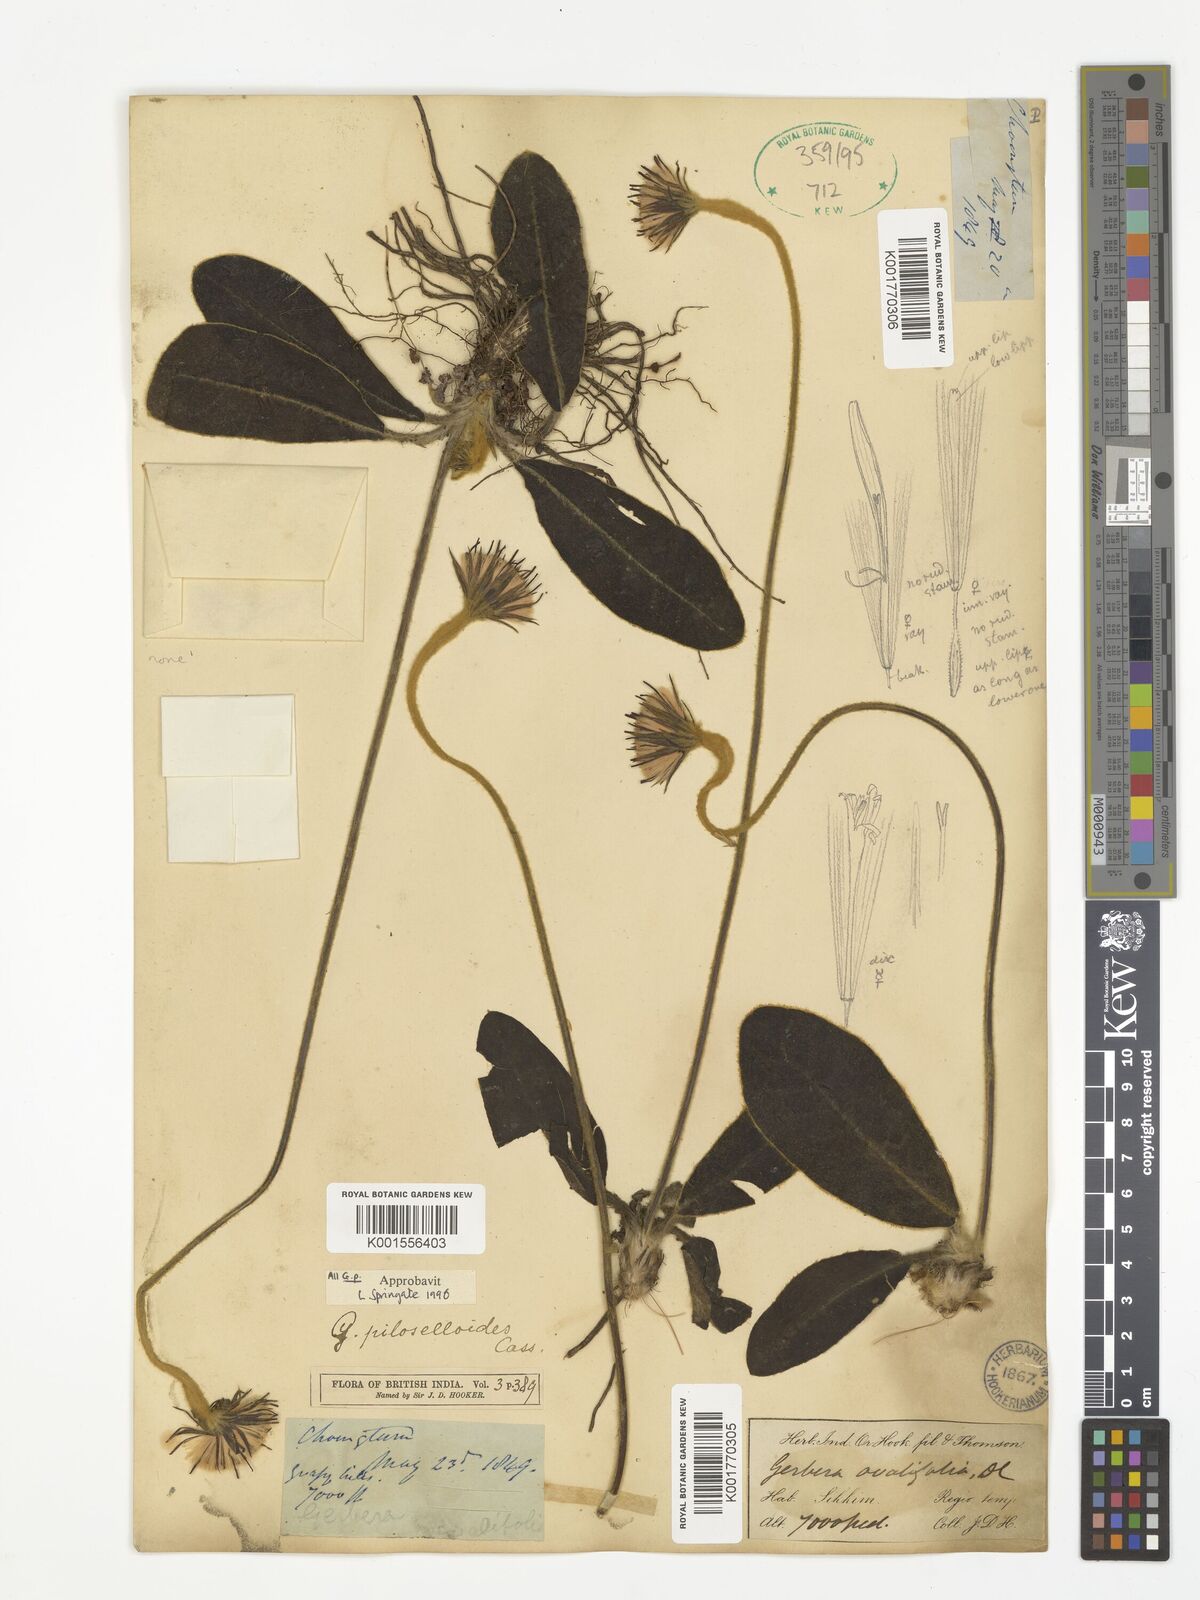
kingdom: Plantae
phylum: Tracheophyta
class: Magnoliopsida
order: Asterales
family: Asteraceae
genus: Piloselloides
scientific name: Piloselloides hirsuta
